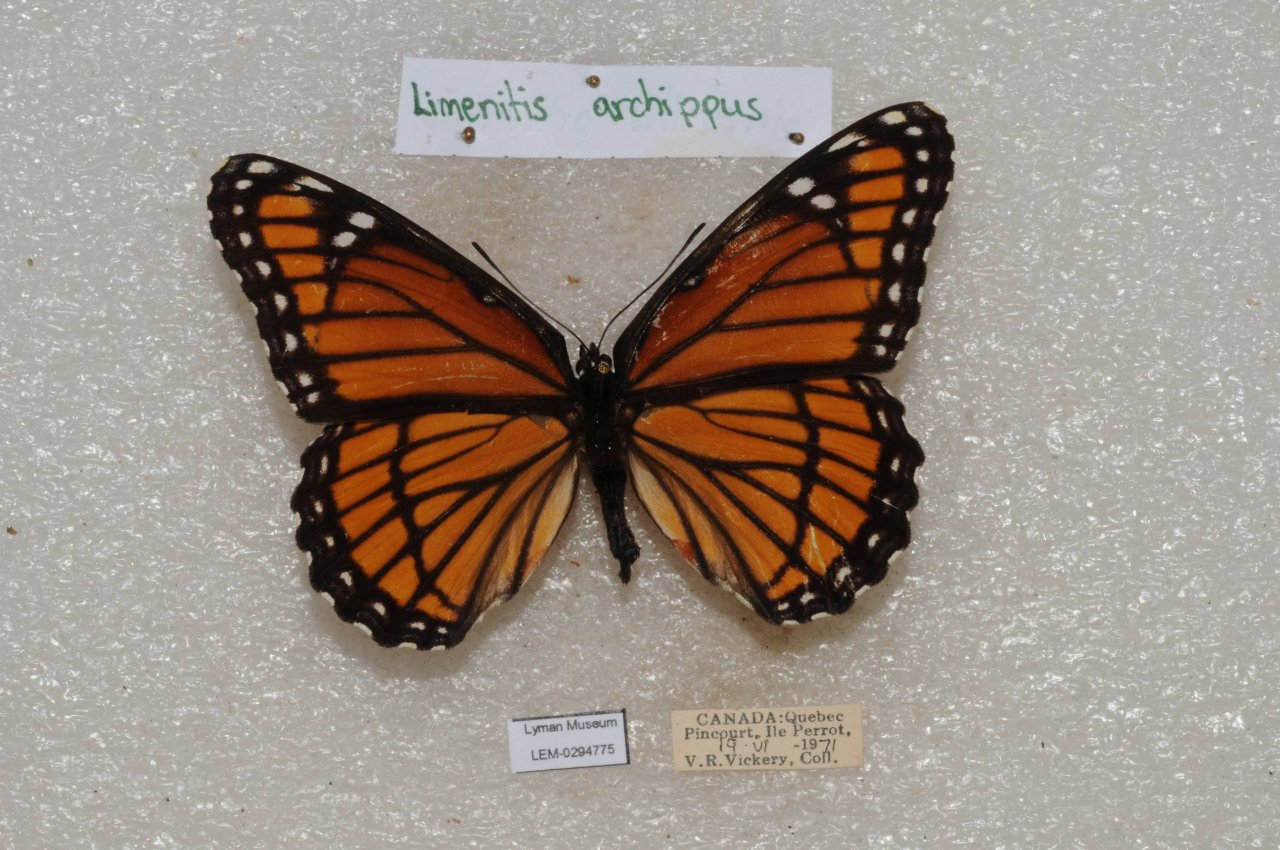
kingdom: Animalia
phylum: Arthropoda
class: Insecta
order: Lepidoptera
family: Nymphalidae
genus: Limenitis
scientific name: Limenitis archippus
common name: Viceroy
